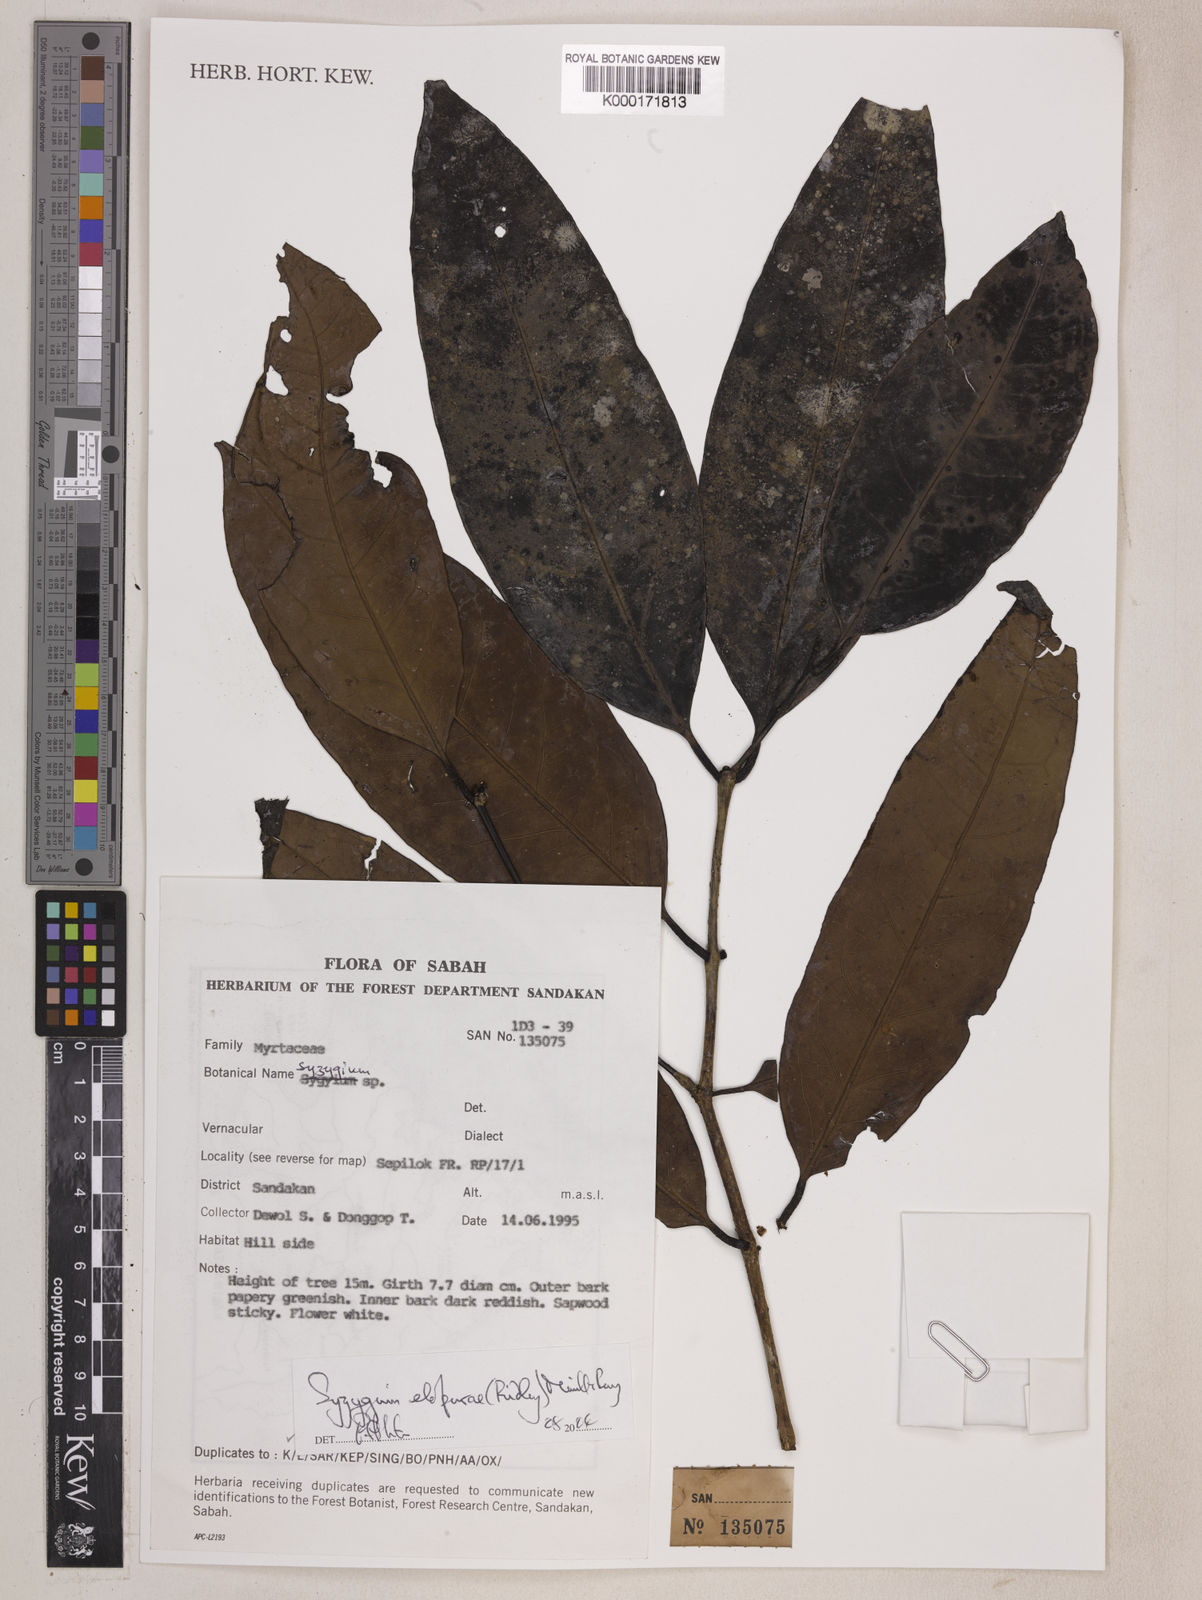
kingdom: Plantae
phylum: Tracheophyta
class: Magnoliopsida
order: Myrtales
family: Myrtaceae
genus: Syzygium
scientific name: Syzygium elopurae
